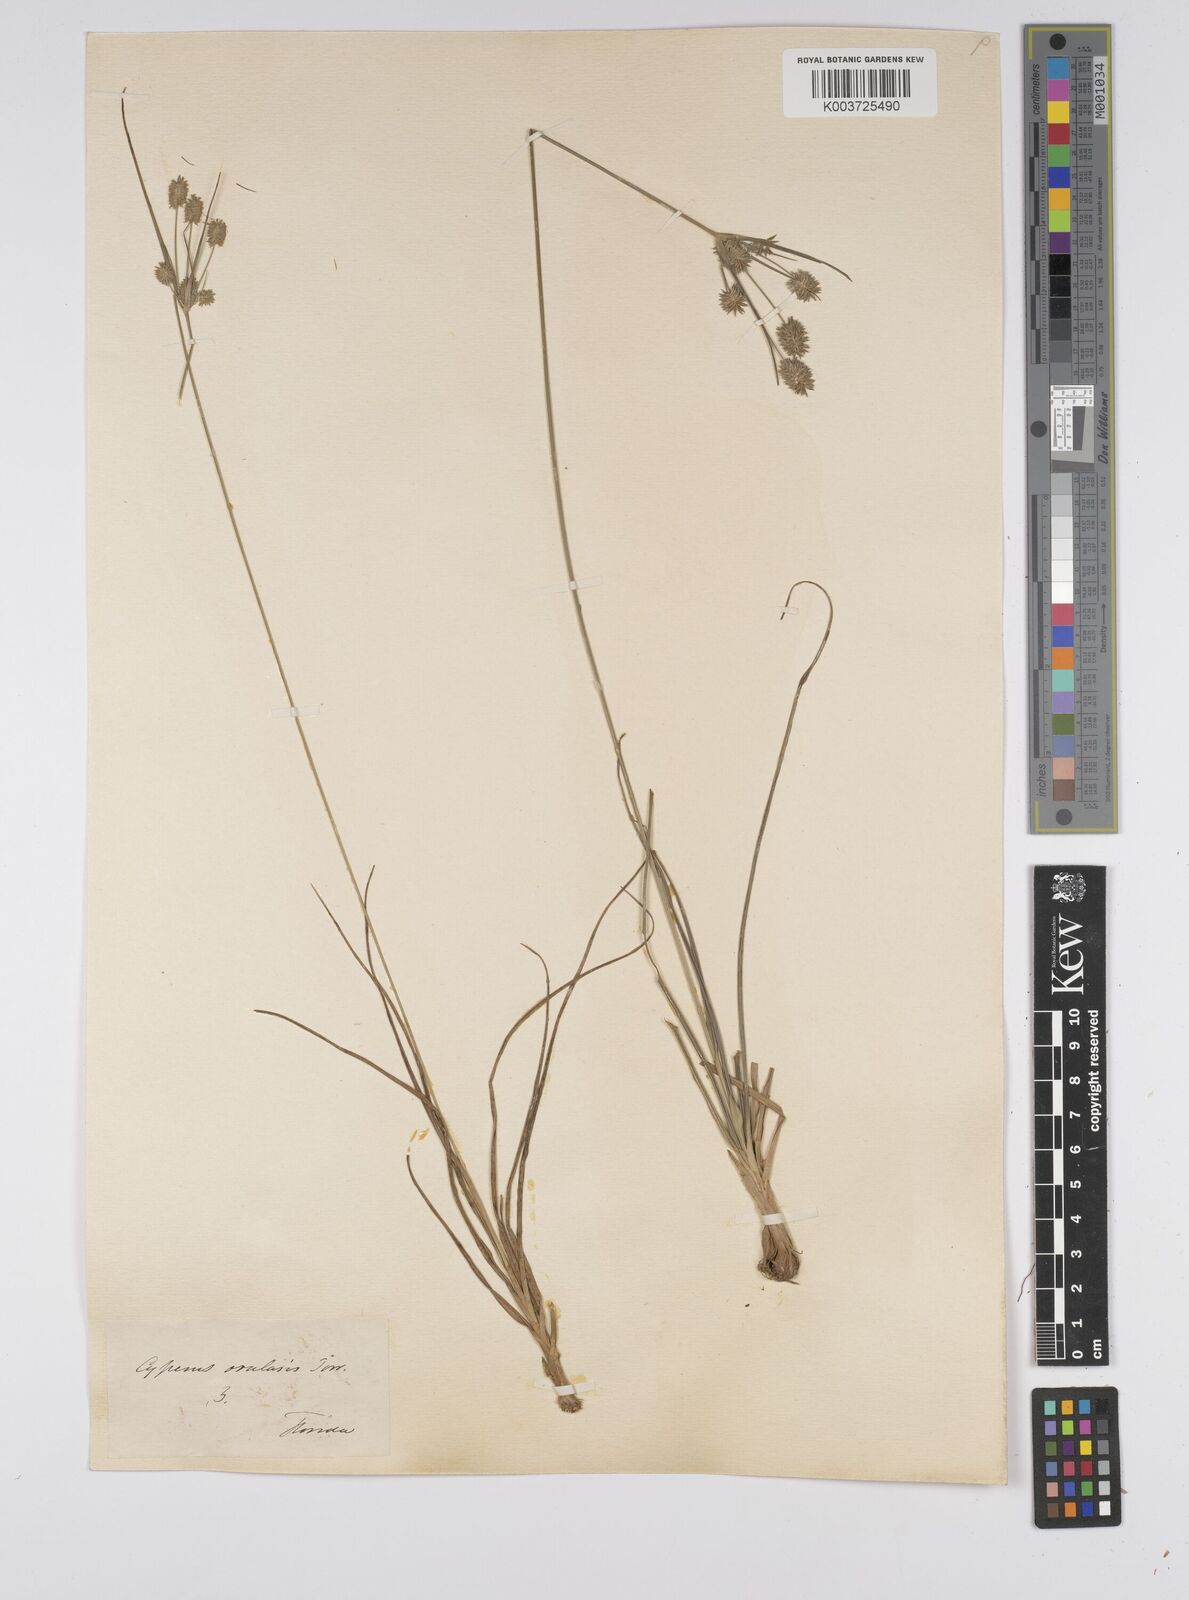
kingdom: Plantae
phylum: Tracheophyta
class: Liliopsida
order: Poales
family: Cyperaceae
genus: Cyperus
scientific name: Cyperus echinatus
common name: Teasel sedge
